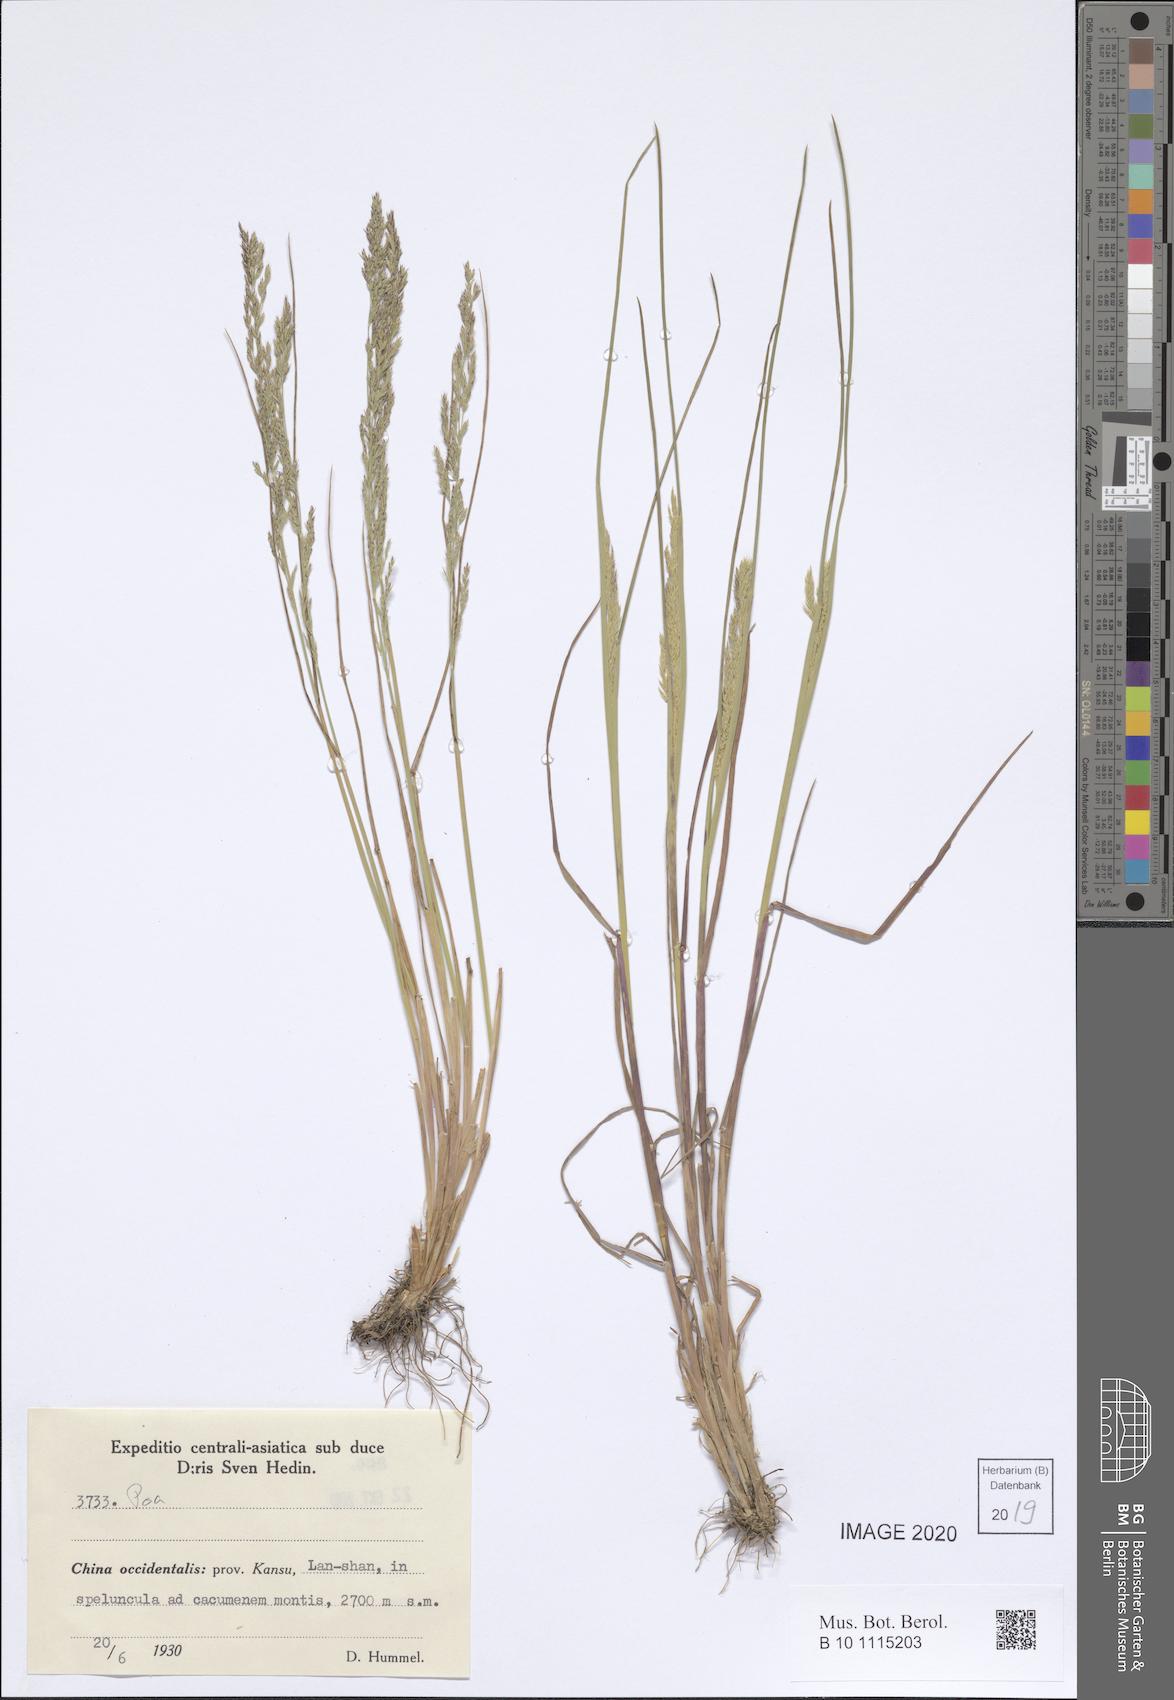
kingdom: Plantae
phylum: Tracheophyta
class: Liliopsida
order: Poales
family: Poaceae
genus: Poa
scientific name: Poa
